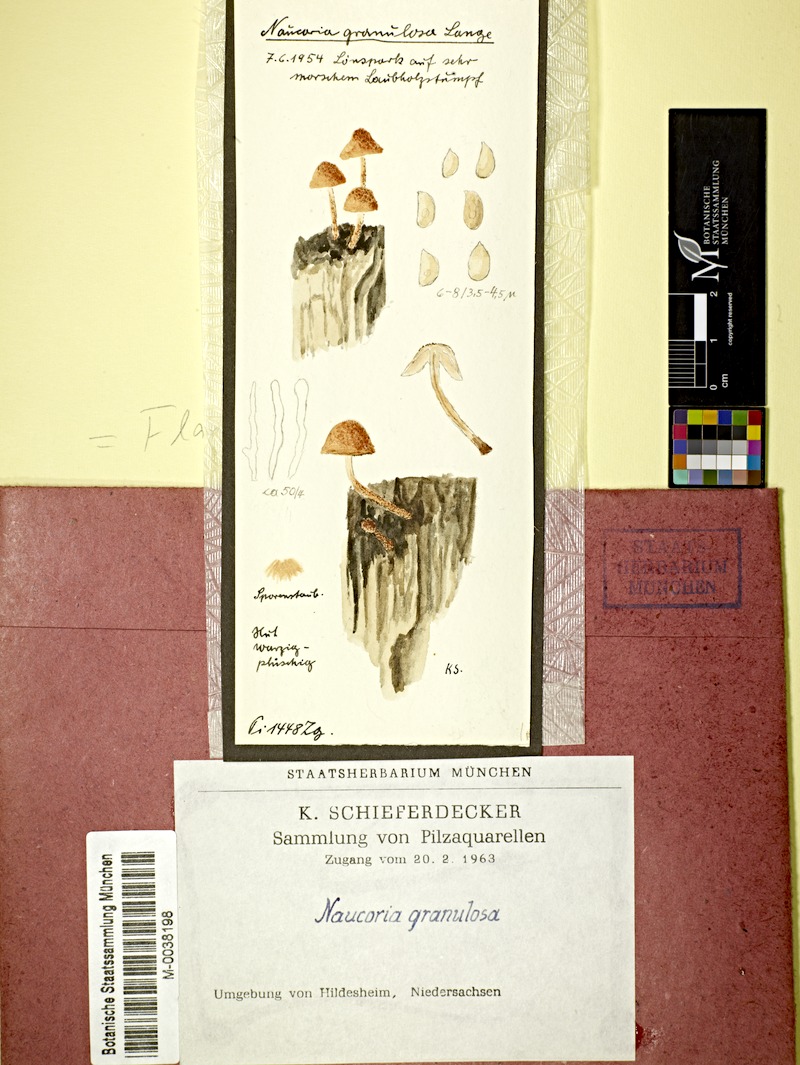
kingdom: Fungi
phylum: Basidiomycota
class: Agaricomycetes
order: Agaricales
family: Tubariaceae
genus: Flammulaster
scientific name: Flammulaster granulosus
